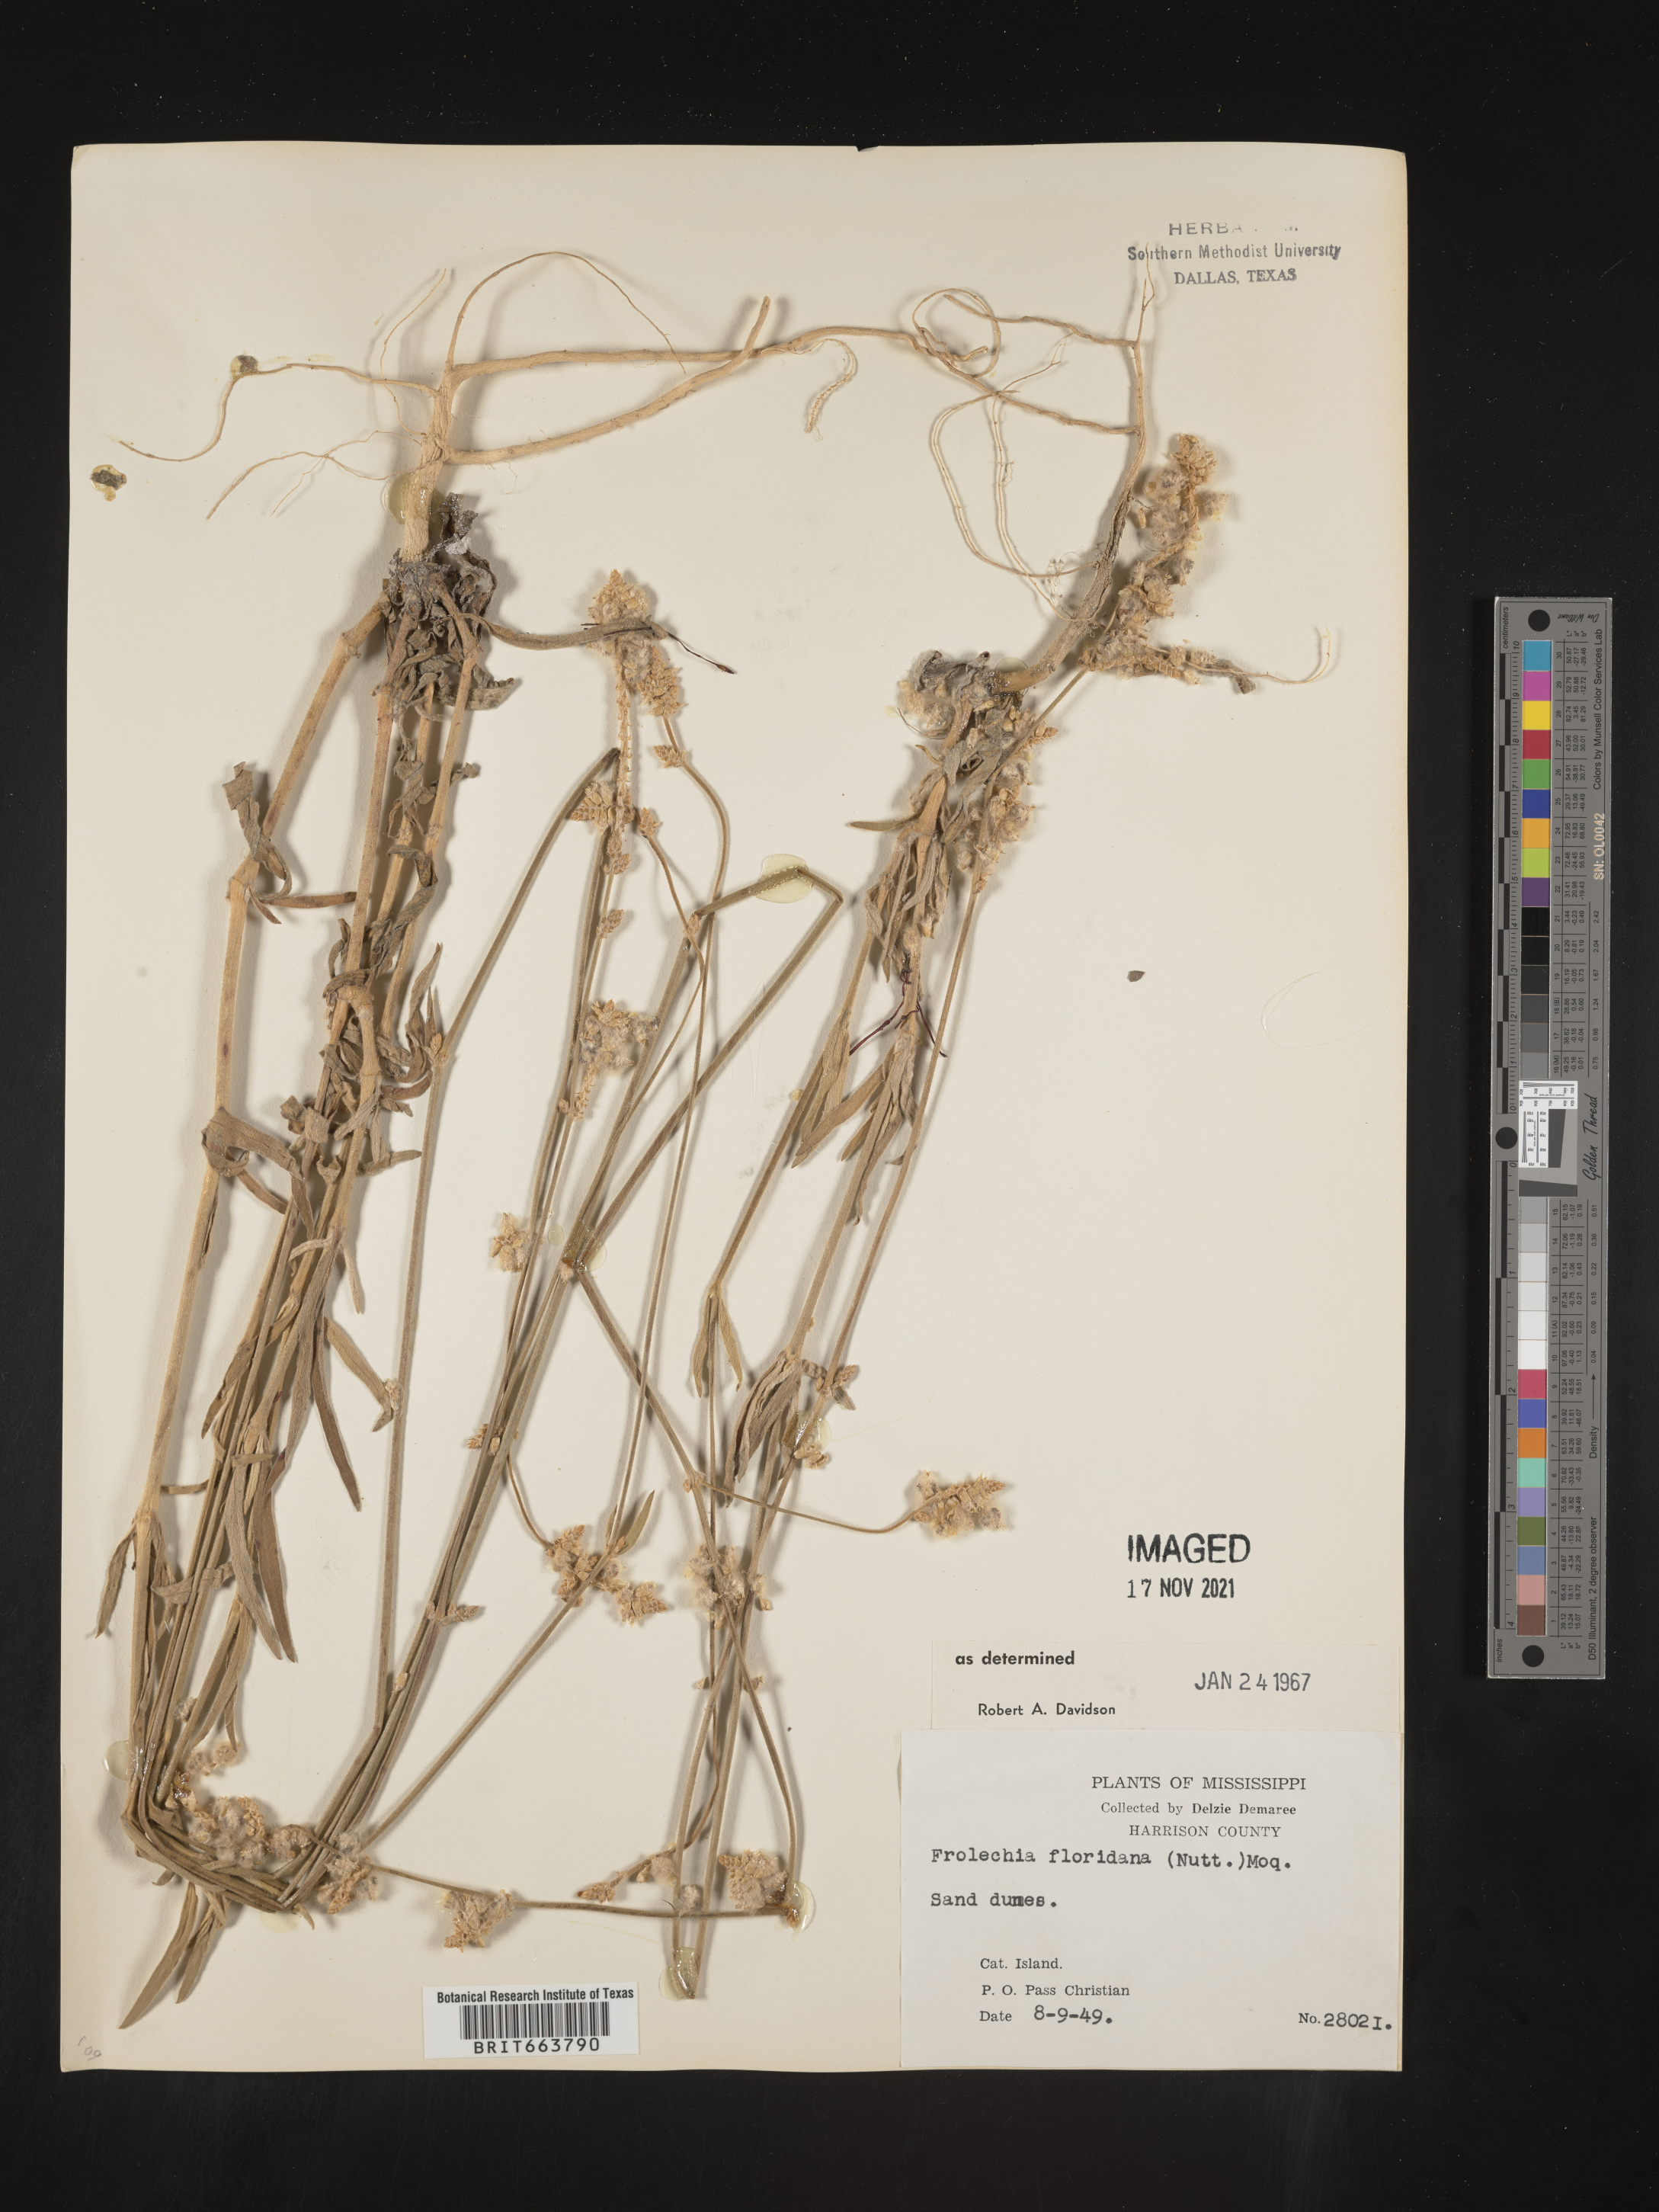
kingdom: Plantae
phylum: Tracheophyta
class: Magnoliopsida
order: Caryophyllales
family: Amaranthaceae
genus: Froelichia
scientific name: Froelichia floridana
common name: Florida snake-cotton
